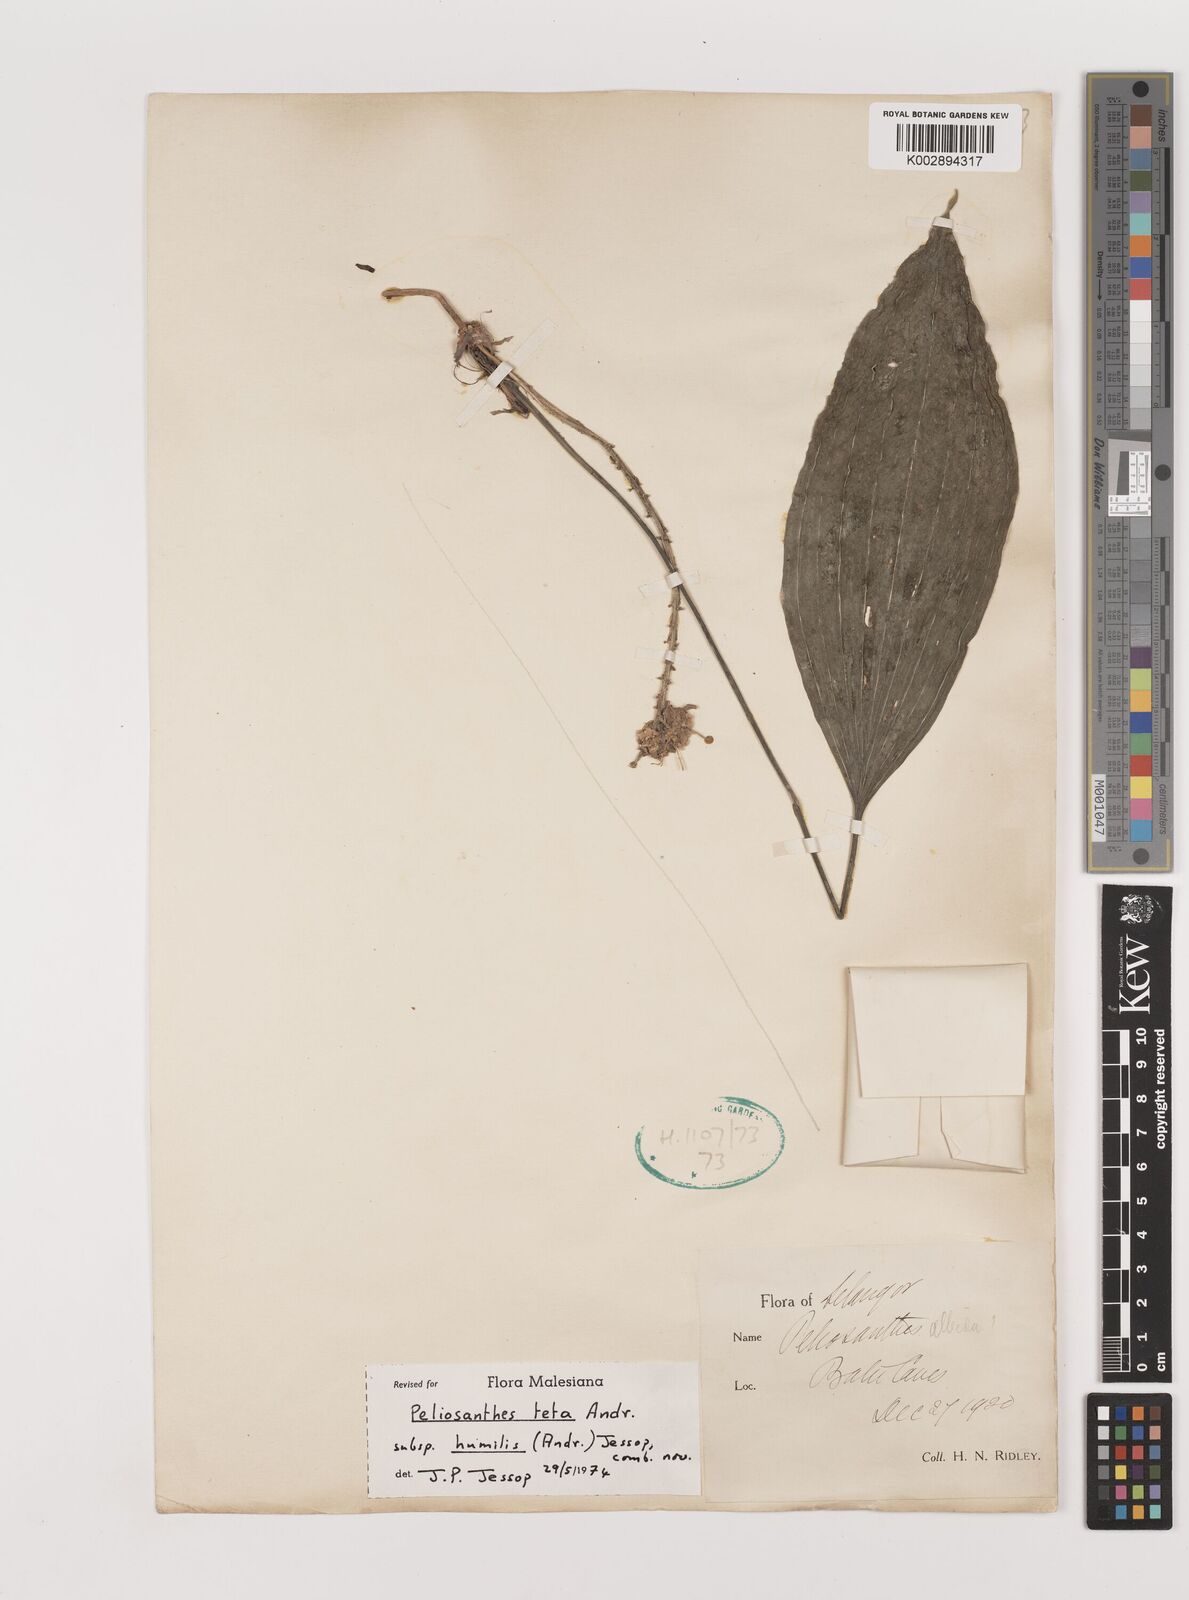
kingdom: Plantae
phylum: Tracheophyta
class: Liliopsida
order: Asparagales
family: Asparagaceae
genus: Peliosanthes
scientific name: Peliosanthes teta
